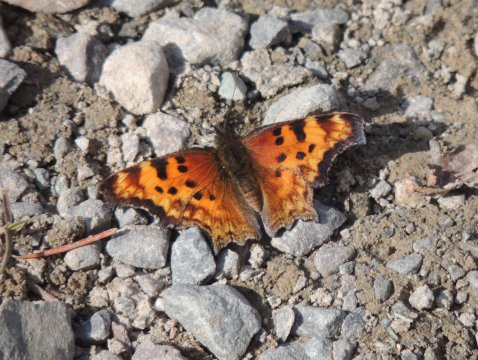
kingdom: Animalia
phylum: Arthropoda
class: Insecta
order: Lepidoptera
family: Nymphalidae
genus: Polygonia
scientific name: Polygonia gracilis
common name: Hoary Comma
